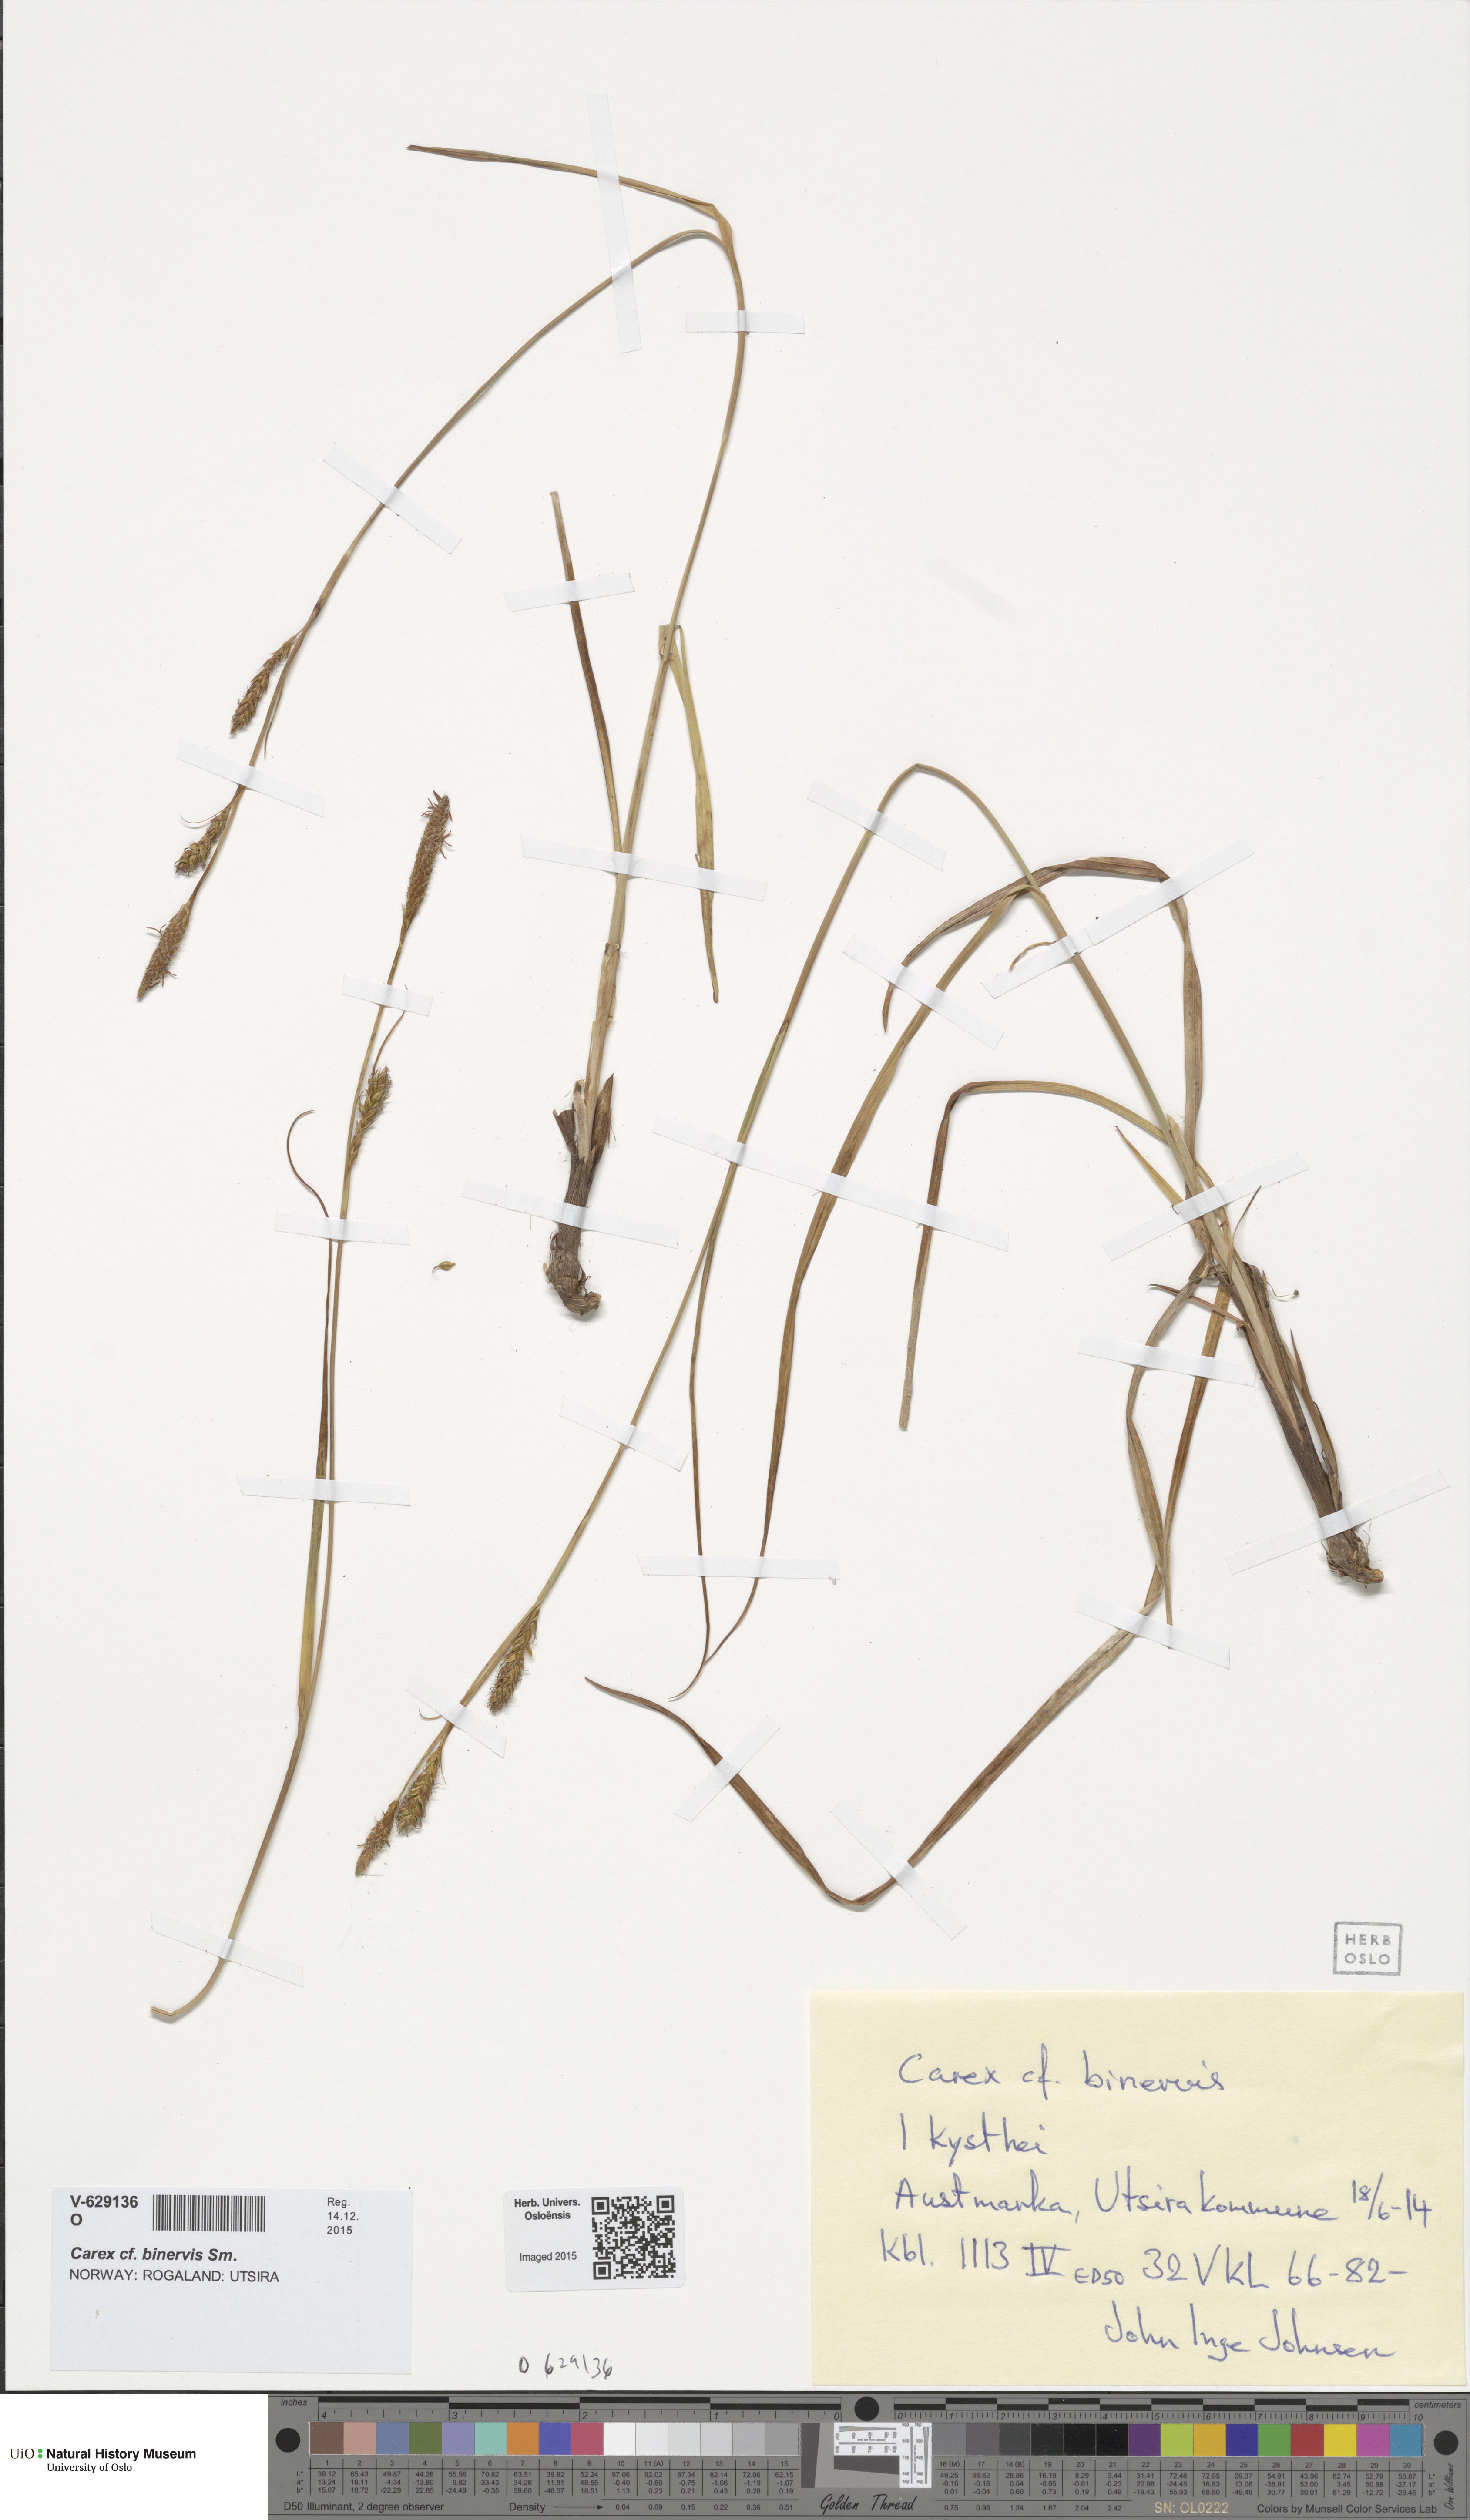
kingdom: Plantae
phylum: Tracheophyta
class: Liliopsida
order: Poales
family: Cyperaceae
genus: Carex
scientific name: Carex binervis
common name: Green-ribbed sedge
